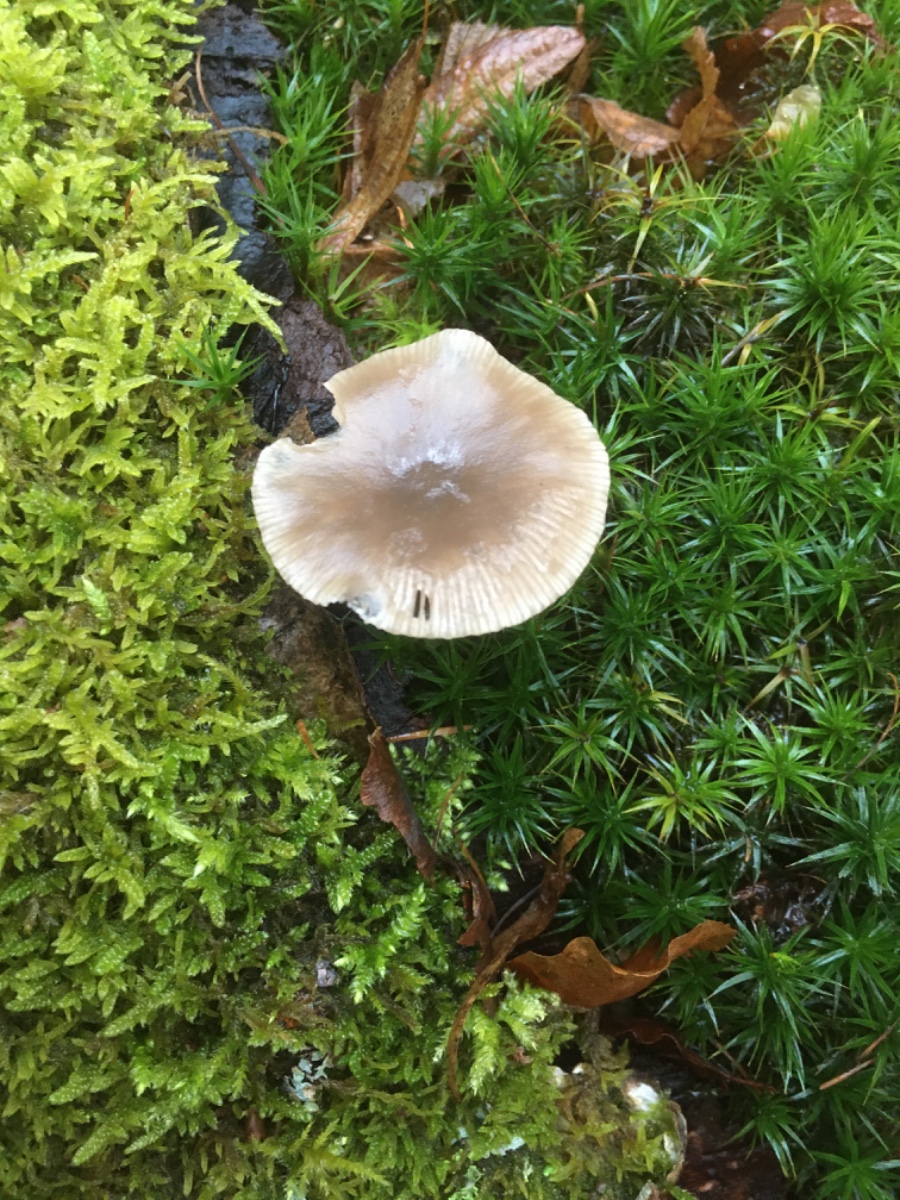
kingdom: Fungi
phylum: Basidiomycota
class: Agaricomycetes
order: Agaricales
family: Tricholomataceae
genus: Clitocybe
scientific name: Clitocybe
